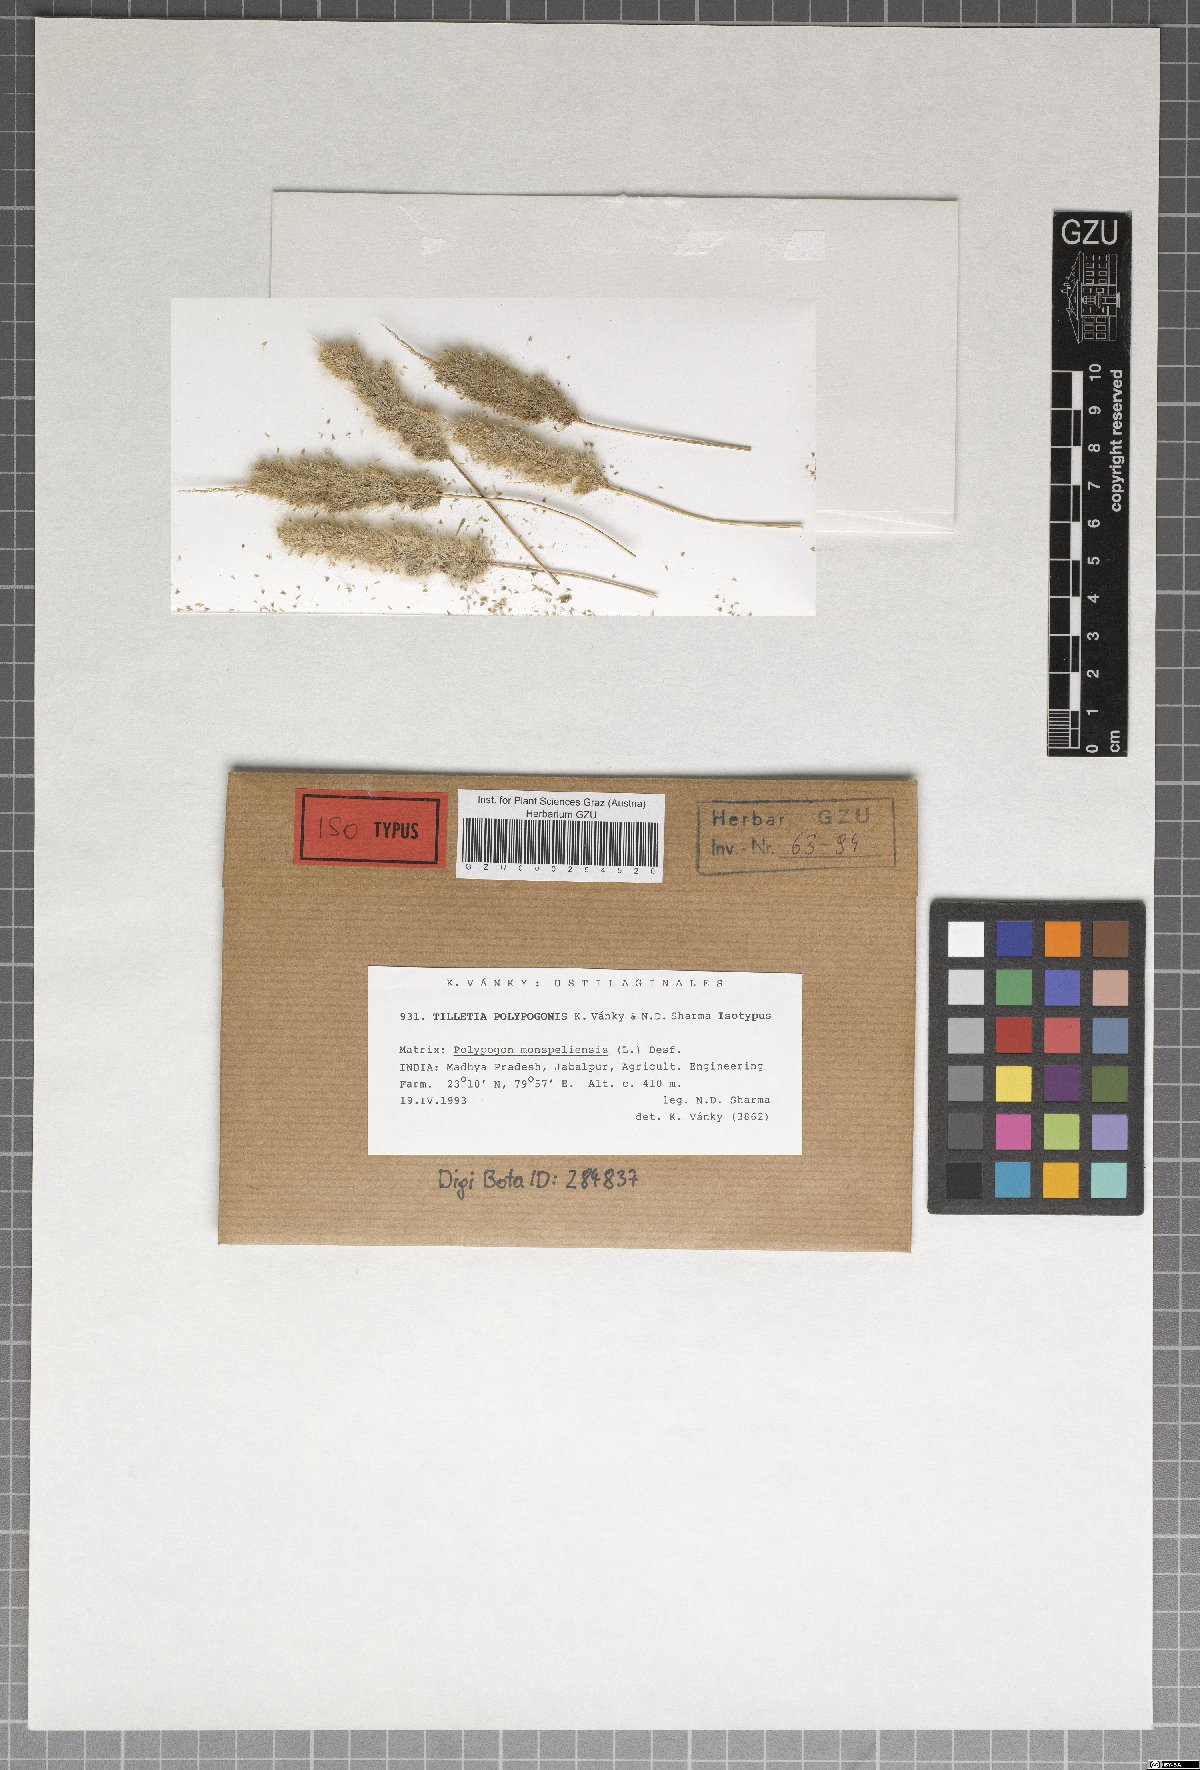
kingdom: Fungi
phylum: Basidiomycota
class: Exobasidiomycetes
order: Tilletiales
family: Tilletiaceae
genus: Tilletia
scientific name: Tilletia polypogonis
